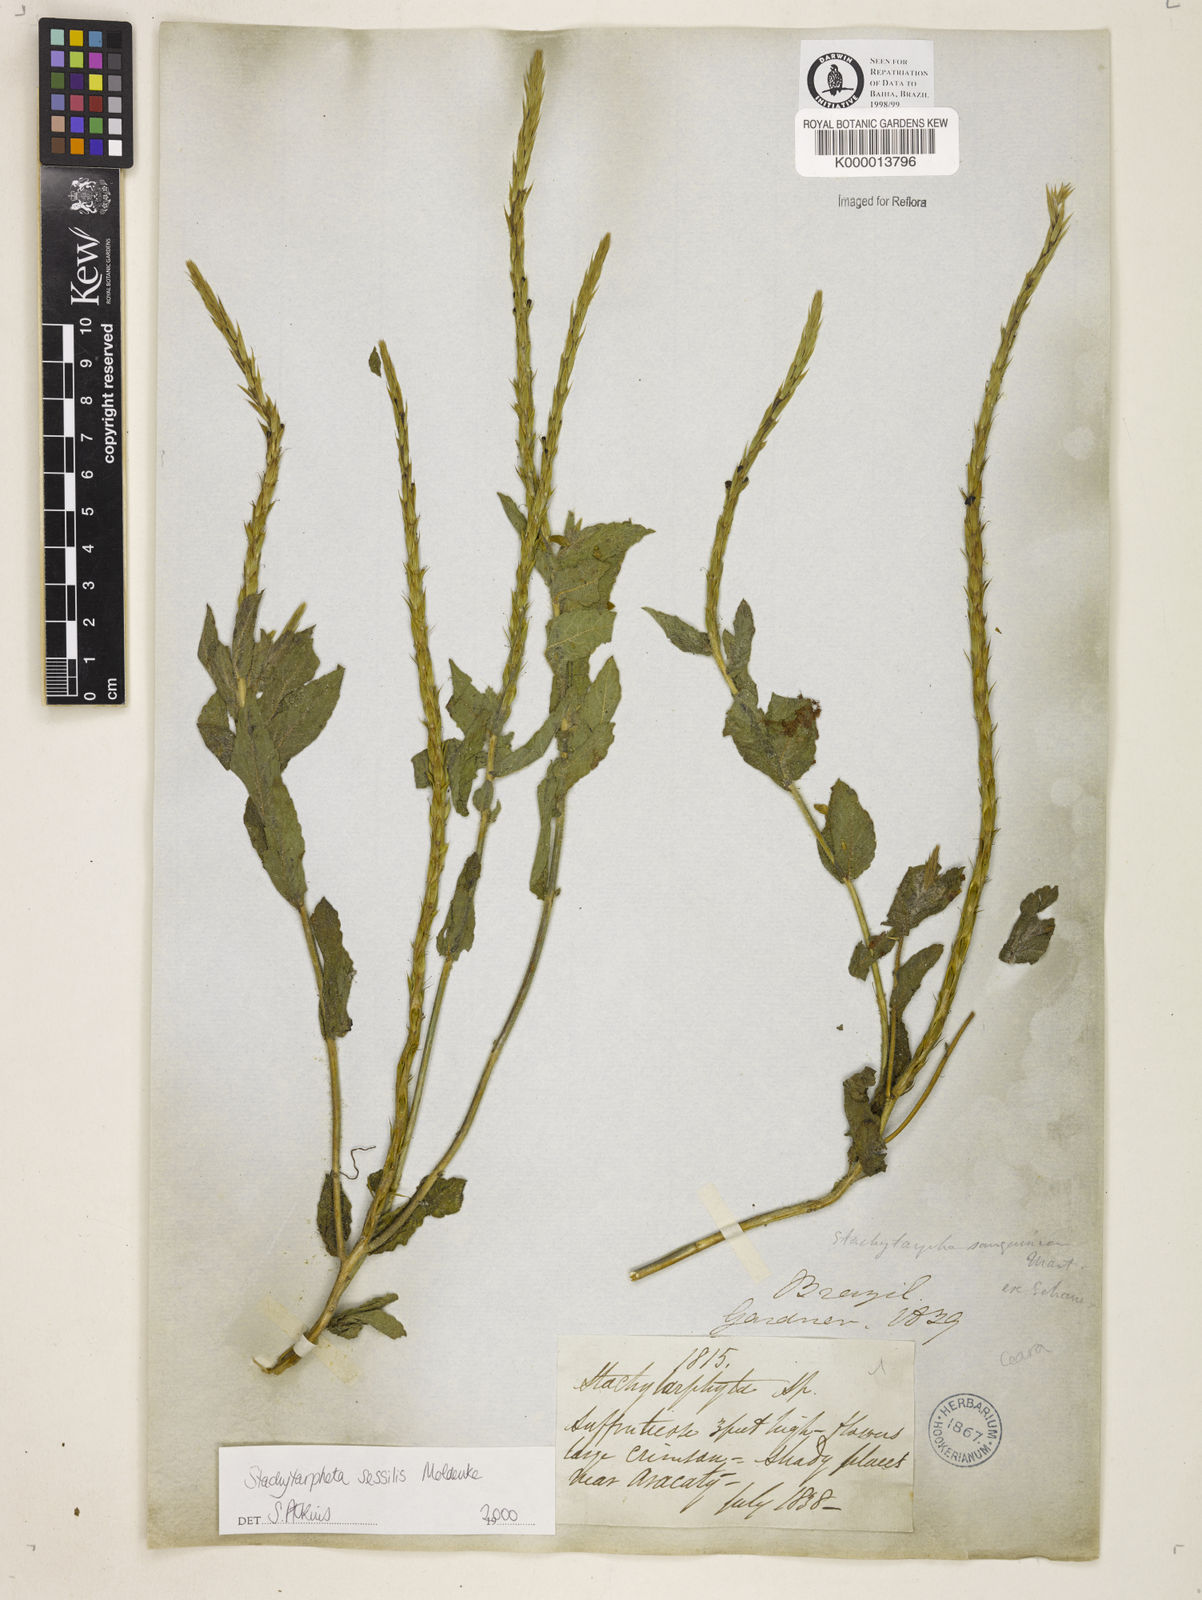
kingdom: Plantae
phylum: Tracheophyta
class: Magnoliopsida
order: Lamiales
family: Verbenaceae
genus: Stachytarpheta
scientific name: Stachytarpheta sessilis
